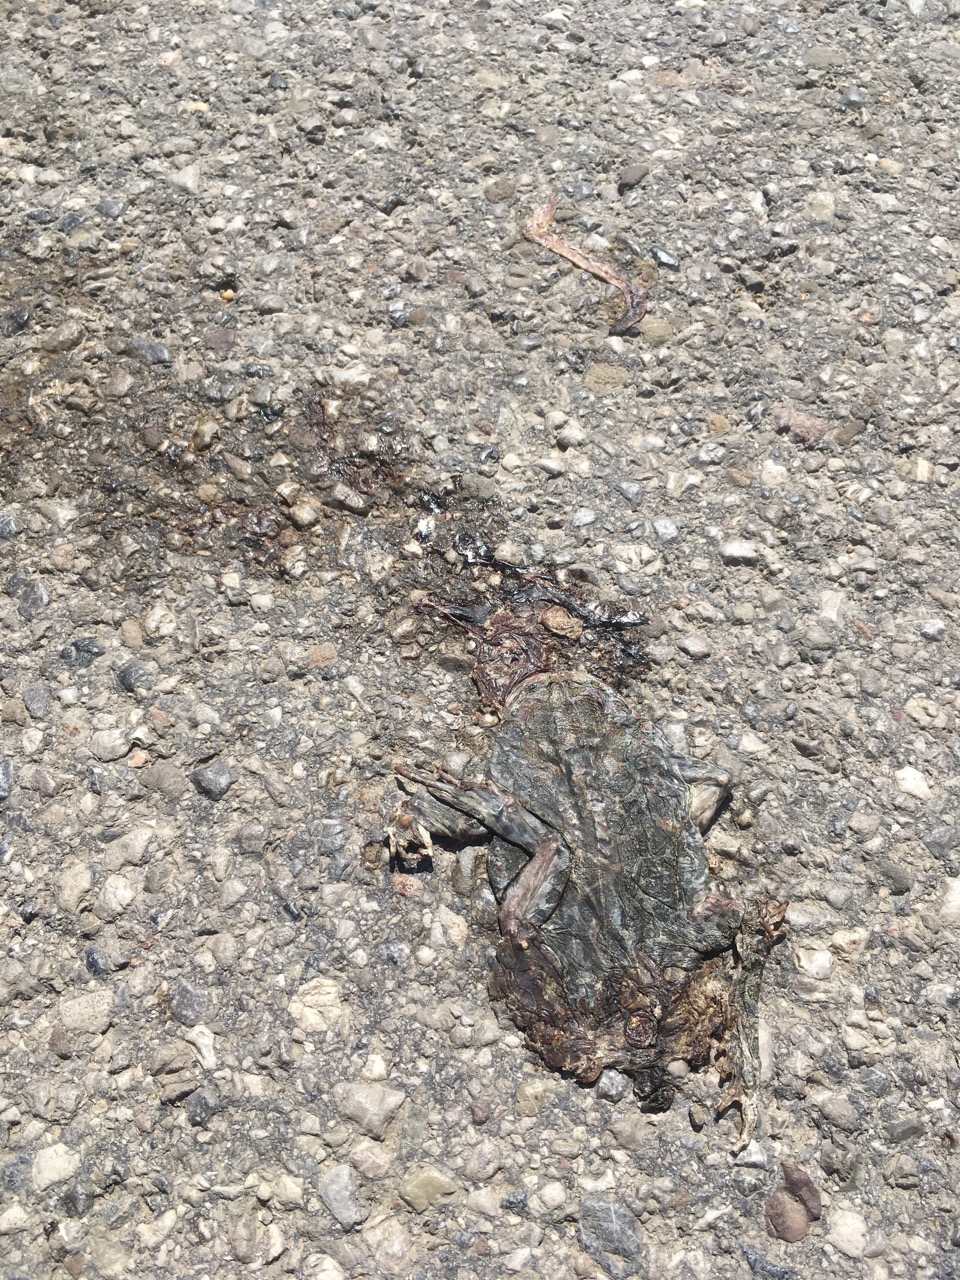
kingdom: Animalia
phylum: Chordata
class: Amphibia
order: Anura
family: Bufonidae
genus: Bufotes
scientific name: Bufotes viridis
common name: European green toad
